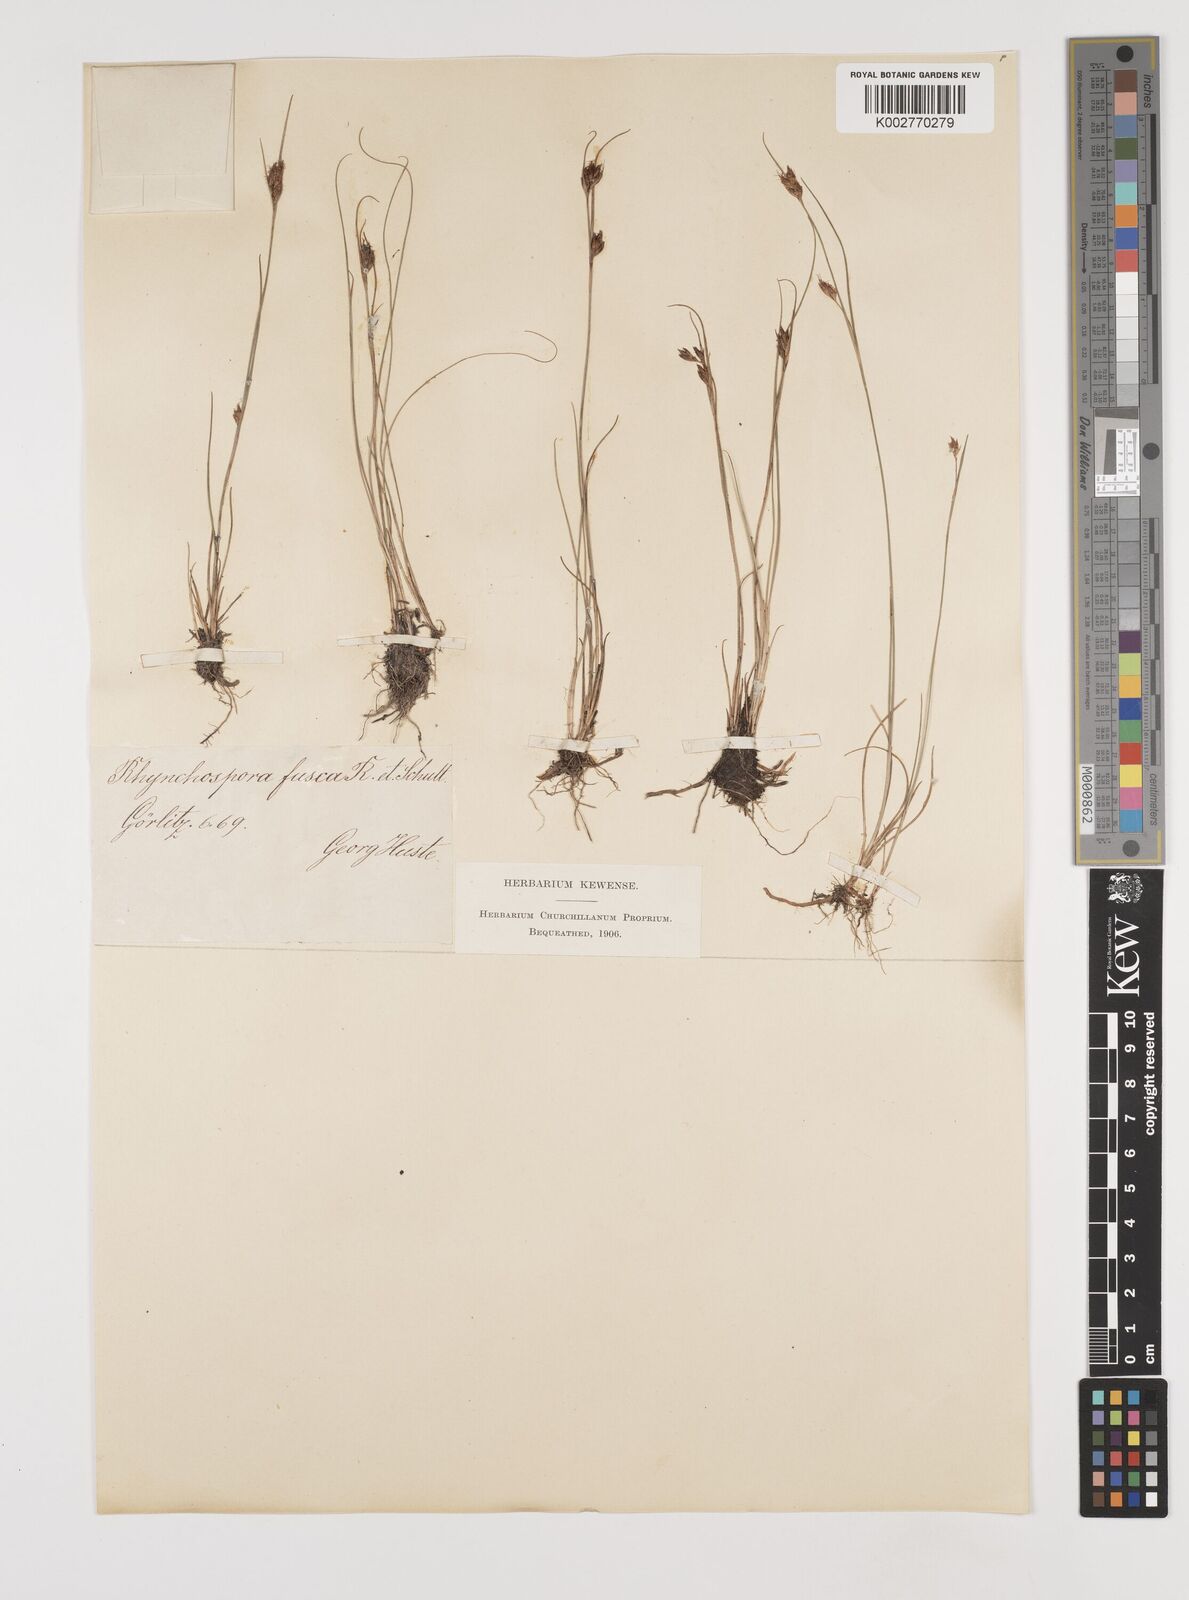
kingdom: Plantae
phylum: Tracheophyta
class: Liliopsida
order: Poales
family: Cyperaceae
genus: Rhynchospora
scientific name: Rhynchospora fusca
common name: Brown beak-sedge
